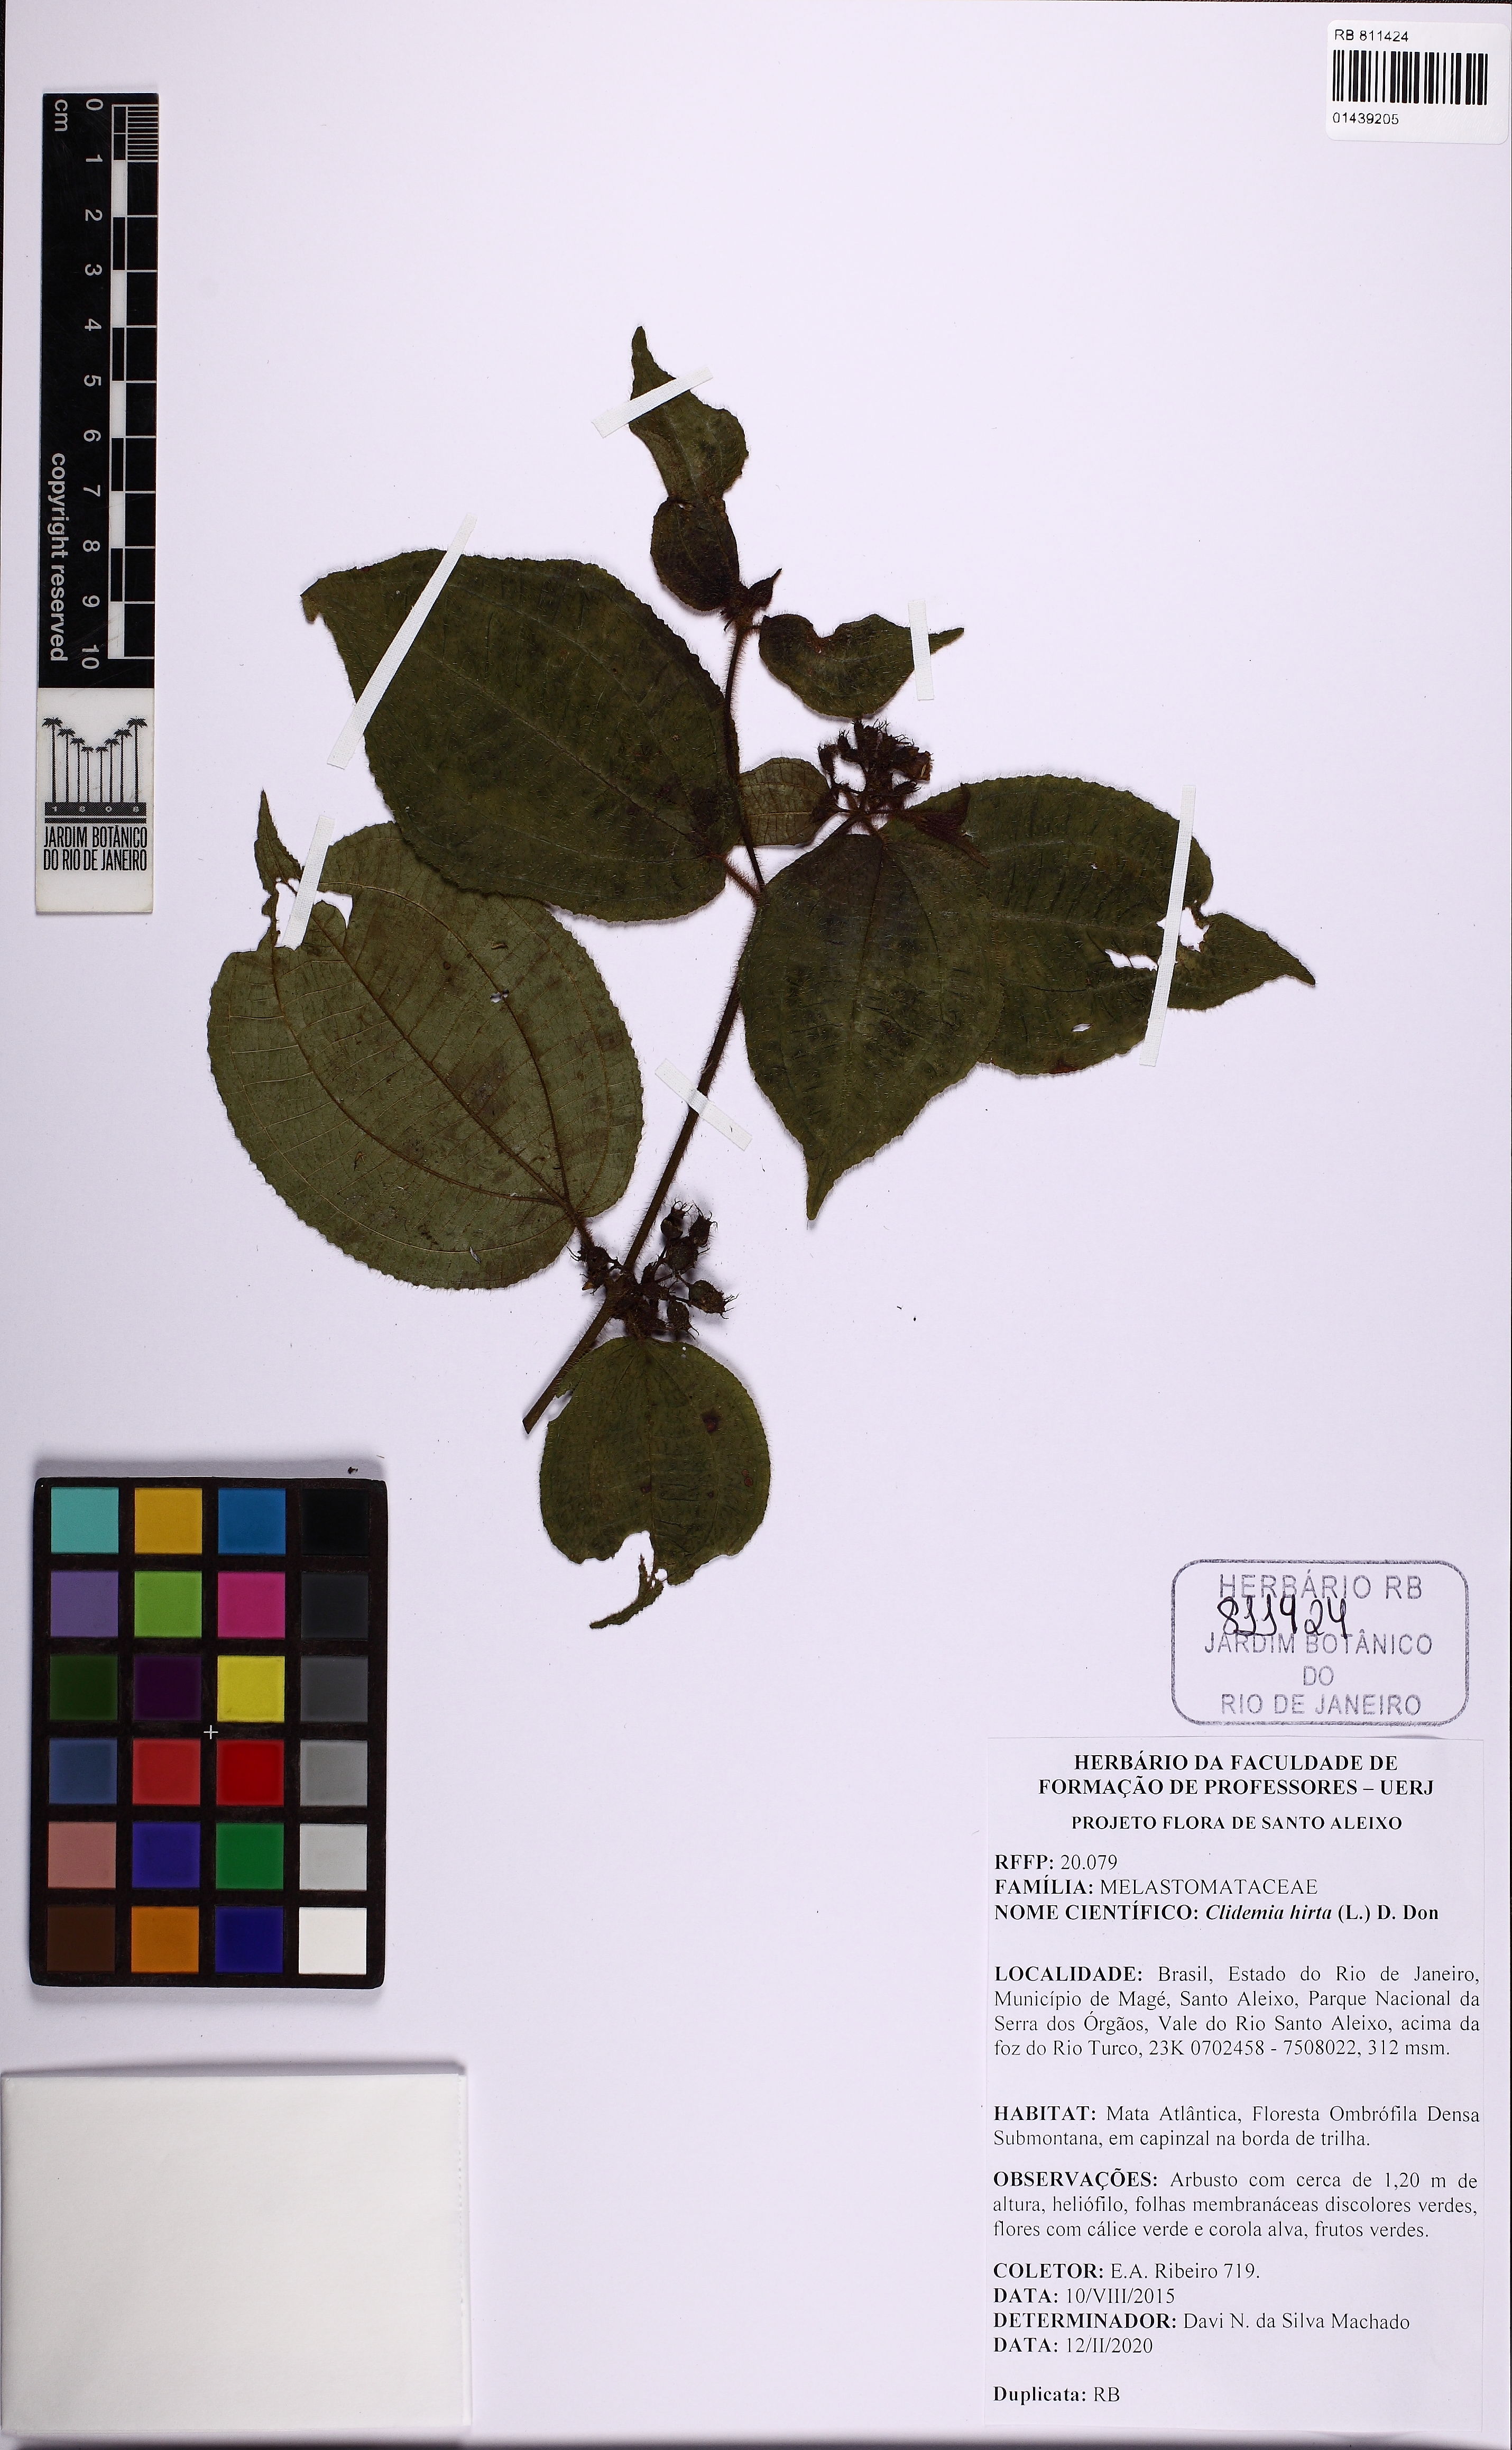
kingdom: Plantae
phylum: Tracheophyta
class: Magnoliopsida
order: Myrtales
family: Melastomataceae
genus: Miconia
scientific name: Miconia crenata
